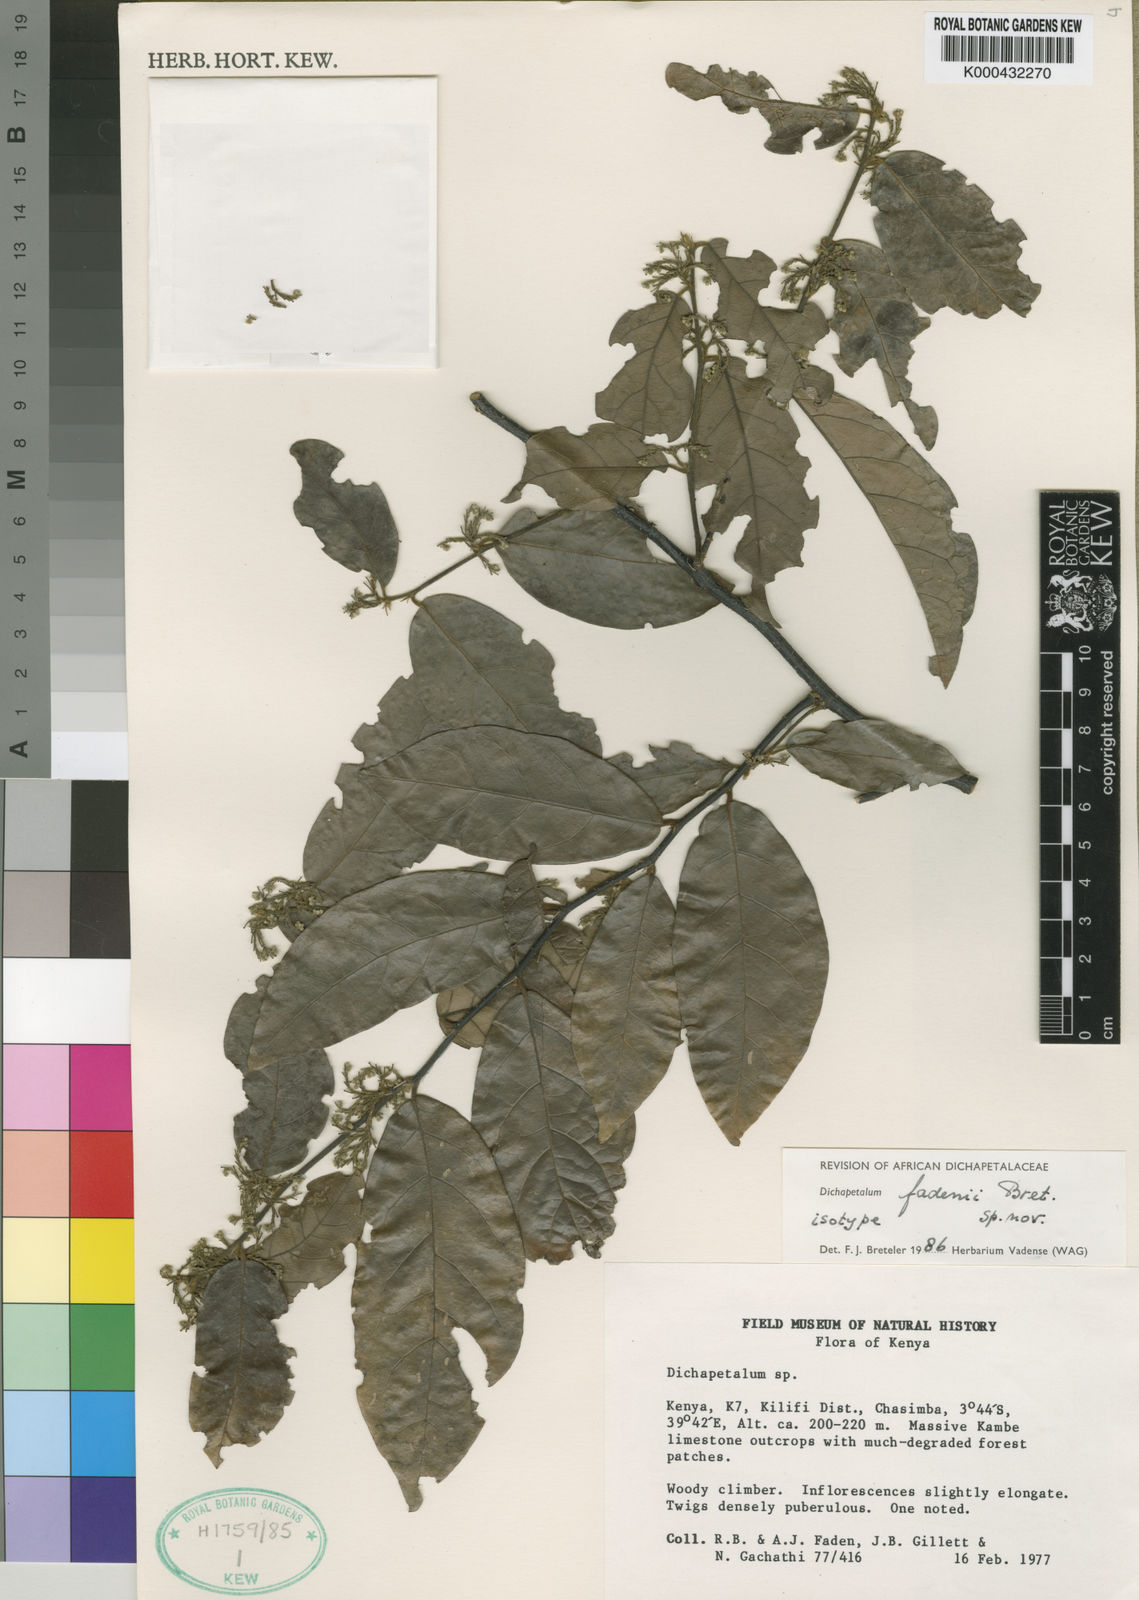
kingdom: Plantae
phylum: Tracheophyta
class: Magnoliopsida
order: Malpighiales
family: Dichapetalaceae
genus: Dichapetalum
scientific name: Dichapetalum fadenii
